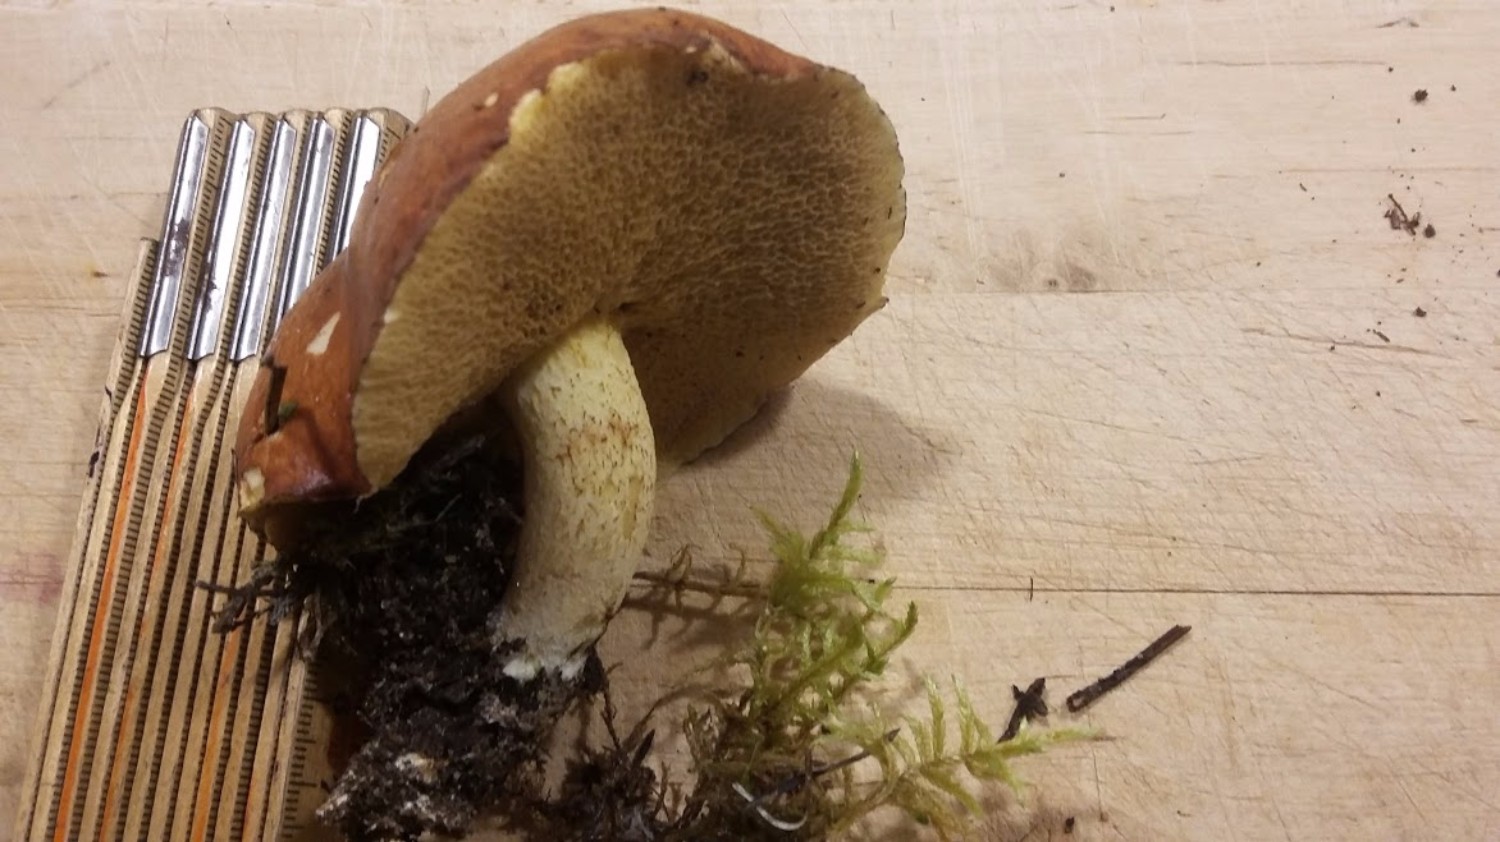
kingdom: Fungi
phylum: Basidiomycota
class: Agaricomycetes
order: Boletales
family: Suillaceae
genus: Suillus
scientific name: Suillus granulatus
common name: kornet slimrørhat
